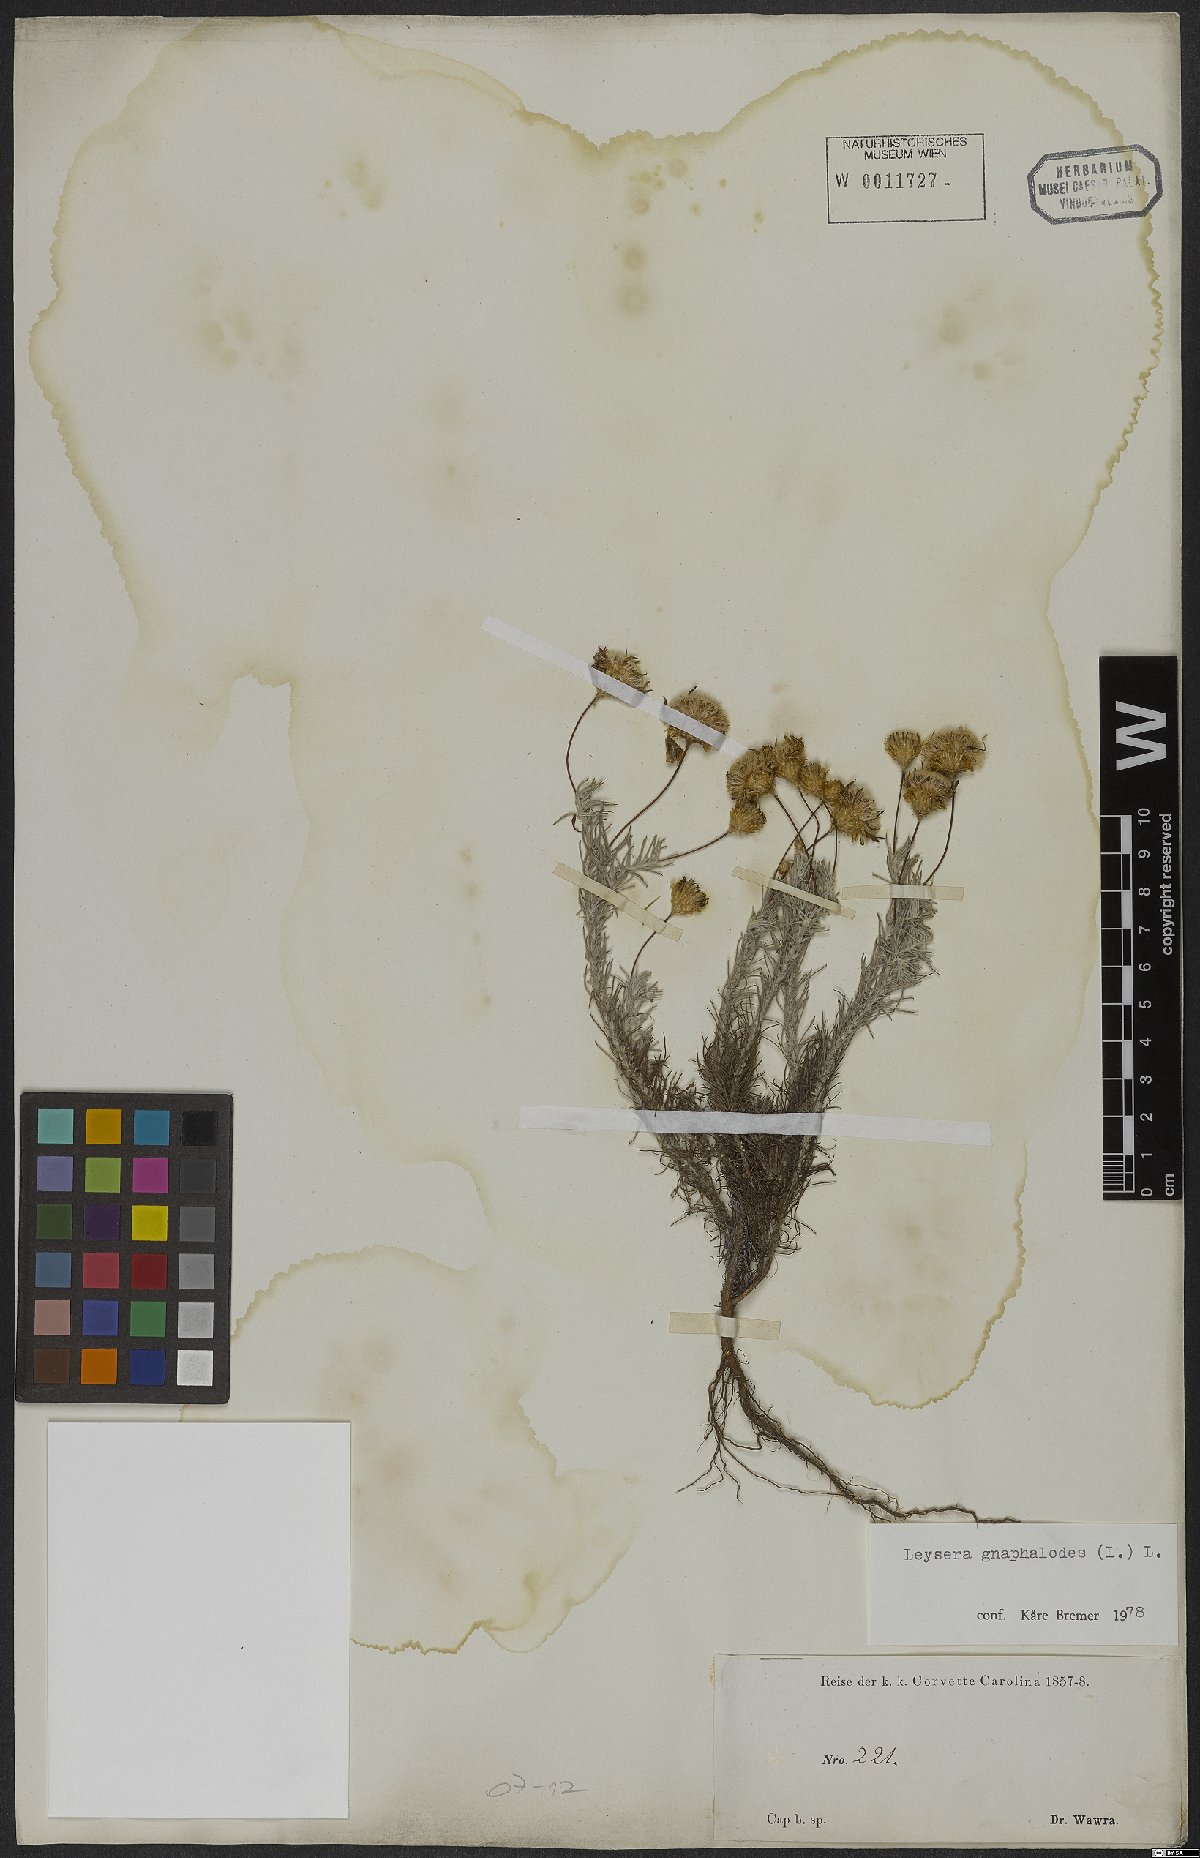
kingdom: Plantae
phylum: Tracheophyta
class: Magnoliopsida
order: Asterales
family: Asteraceae
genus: Leysera
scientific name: Leysera gnaphalodes
